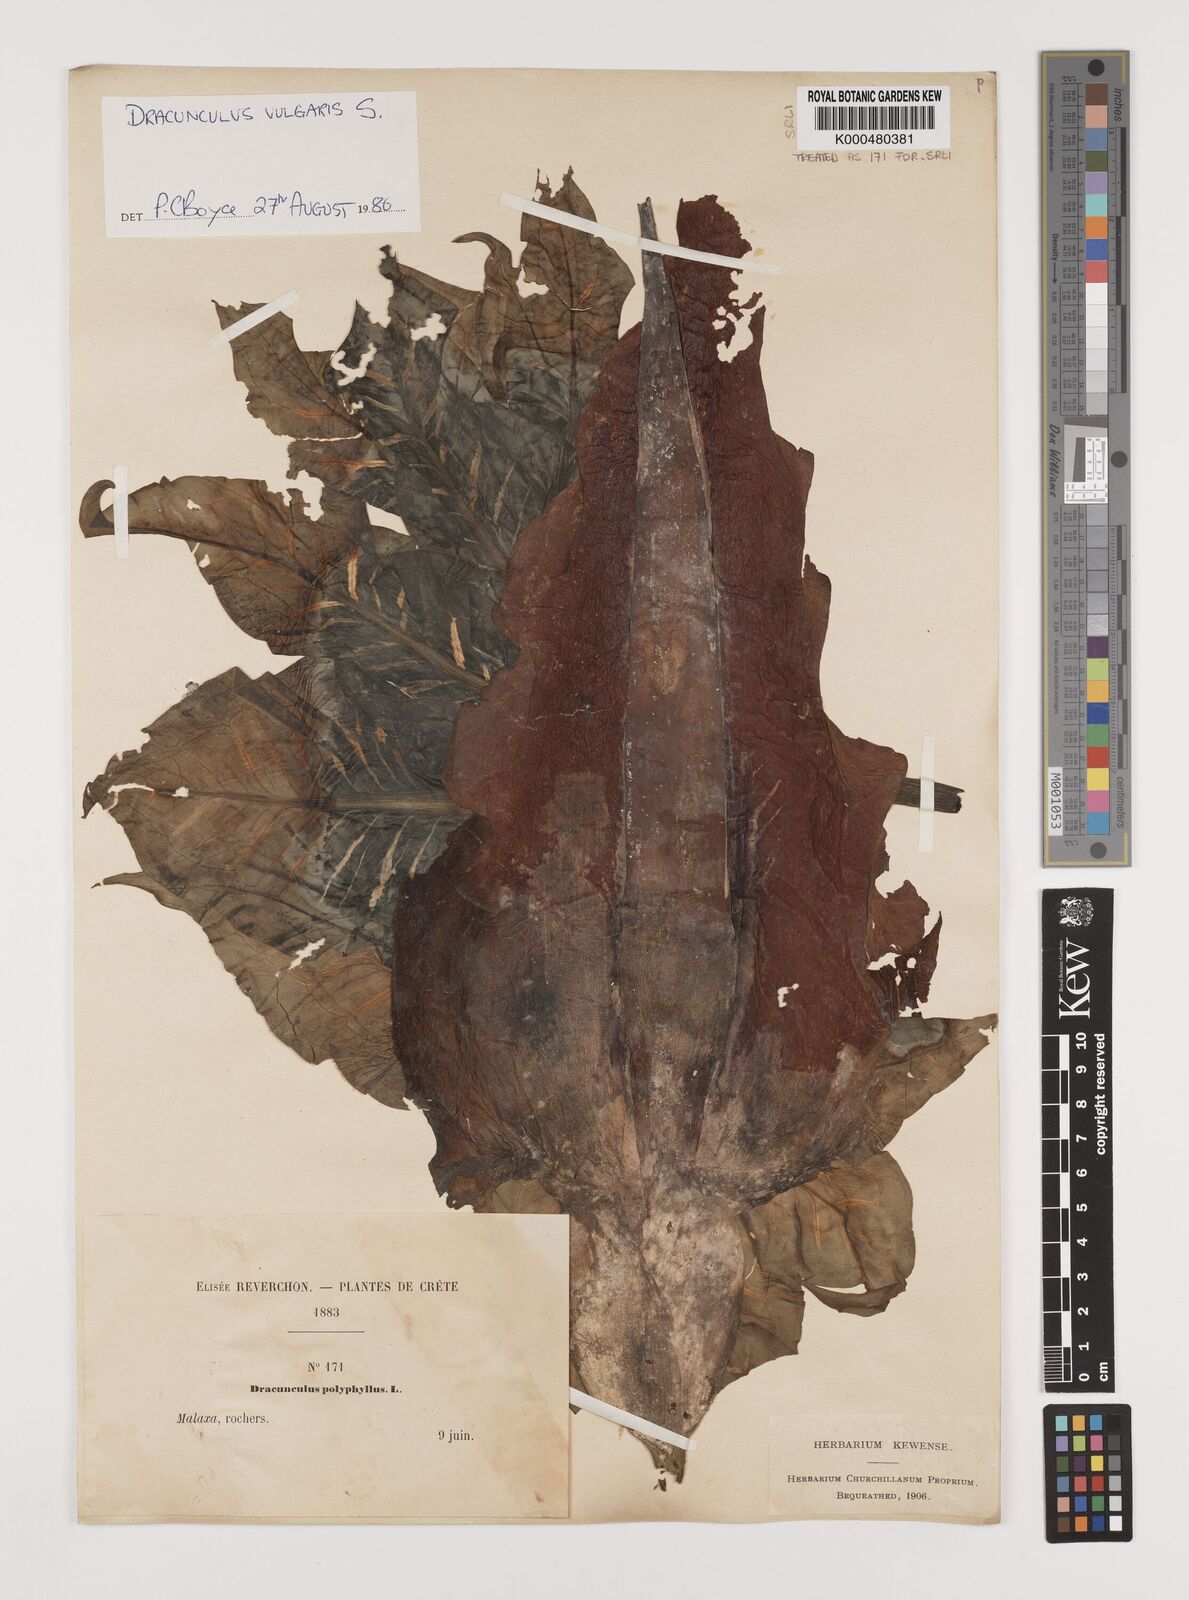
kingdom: Plantae
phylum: Tracheophyta
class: Liliopsida
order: Alismatales
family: Araceae
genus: Dracunculus
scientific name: Dracunculus vulgaris
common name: Dragon arum
